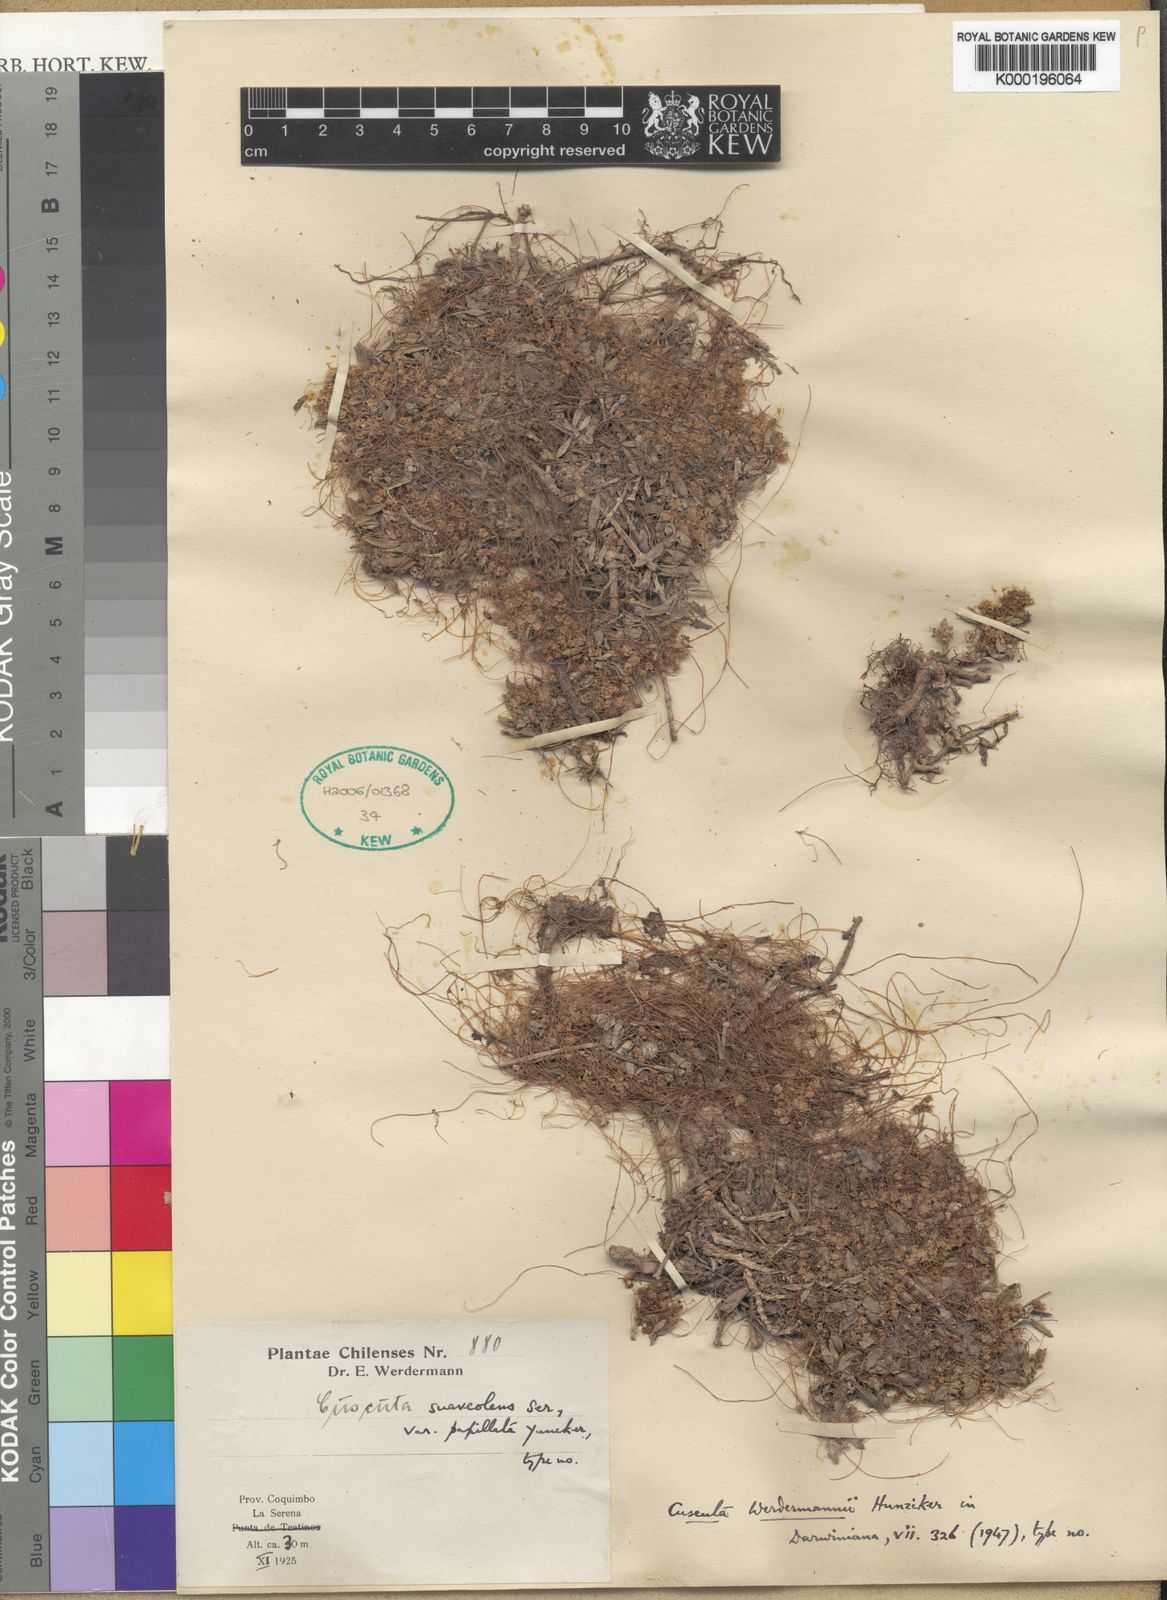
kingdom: Plantae
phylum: Tracheophyta
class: Magnoliopsida
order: Solanales
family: Convolvulaceae
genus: Cuscuta
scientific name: Cuscuta werdermannii
